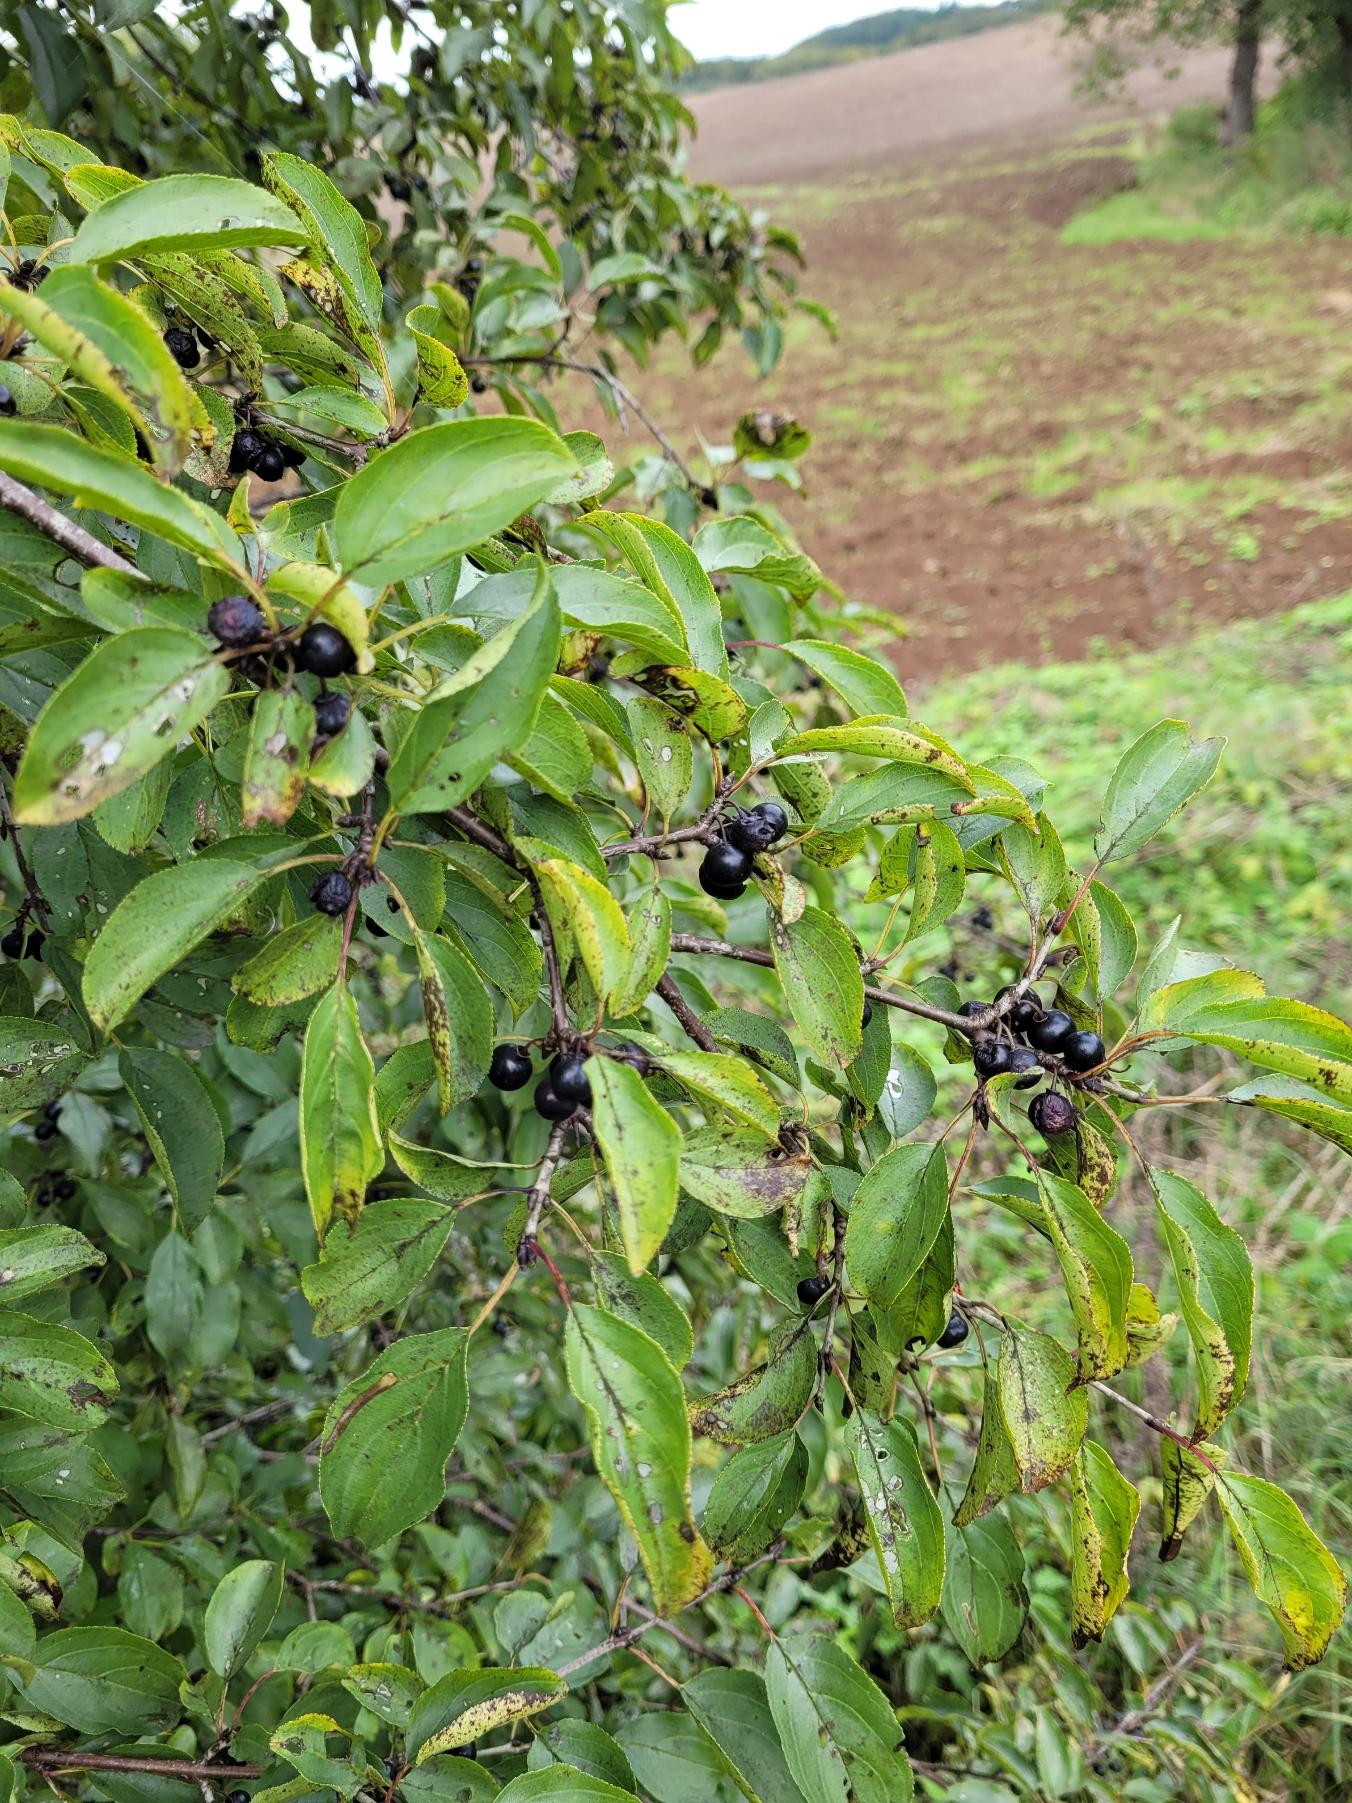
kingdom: Plantae
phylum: Tracheophyta
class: Magnoliopsida
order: Rosales
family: Rhamnaceae
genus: Rhamnus
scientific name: Rhamnus cathartica
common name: Vrietorn
